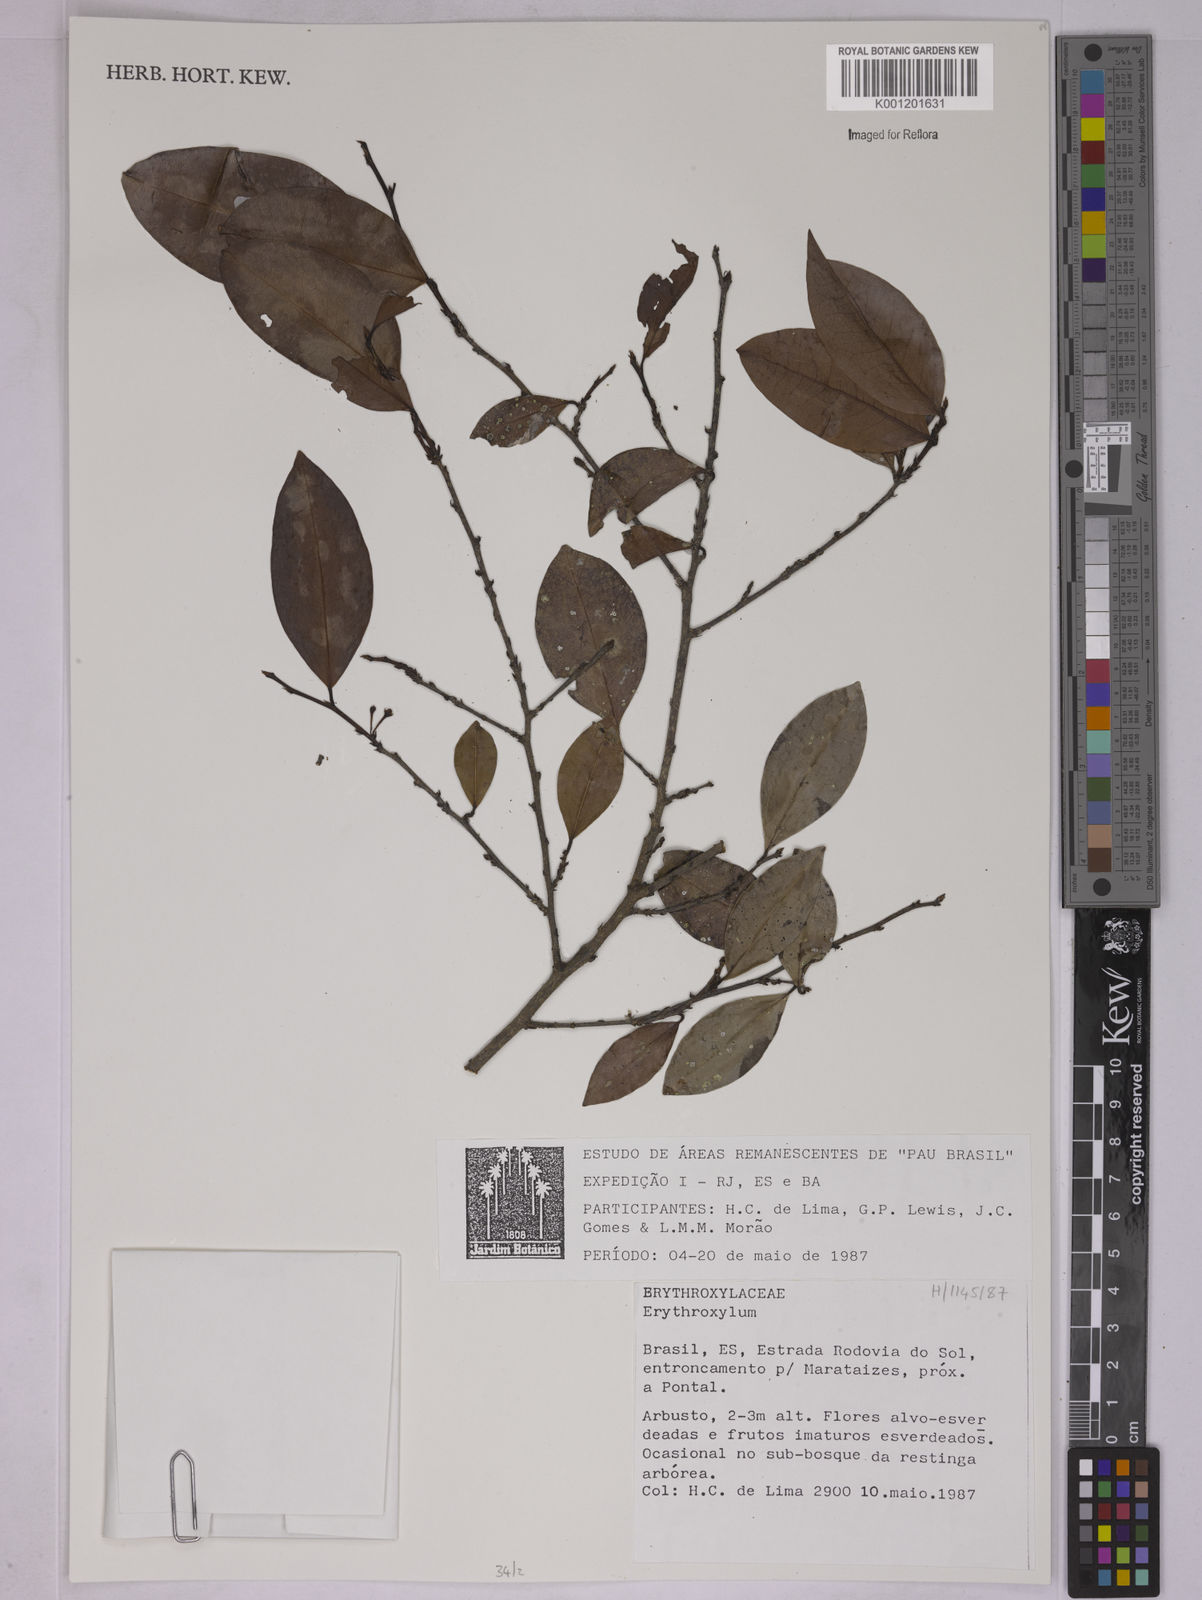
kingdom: Plantae
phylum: Tracheophyta
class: Magnoliopsida
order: Malpighiales
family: Erythroxylaceae
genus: Erythroxylum
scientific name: Erythroxylum
